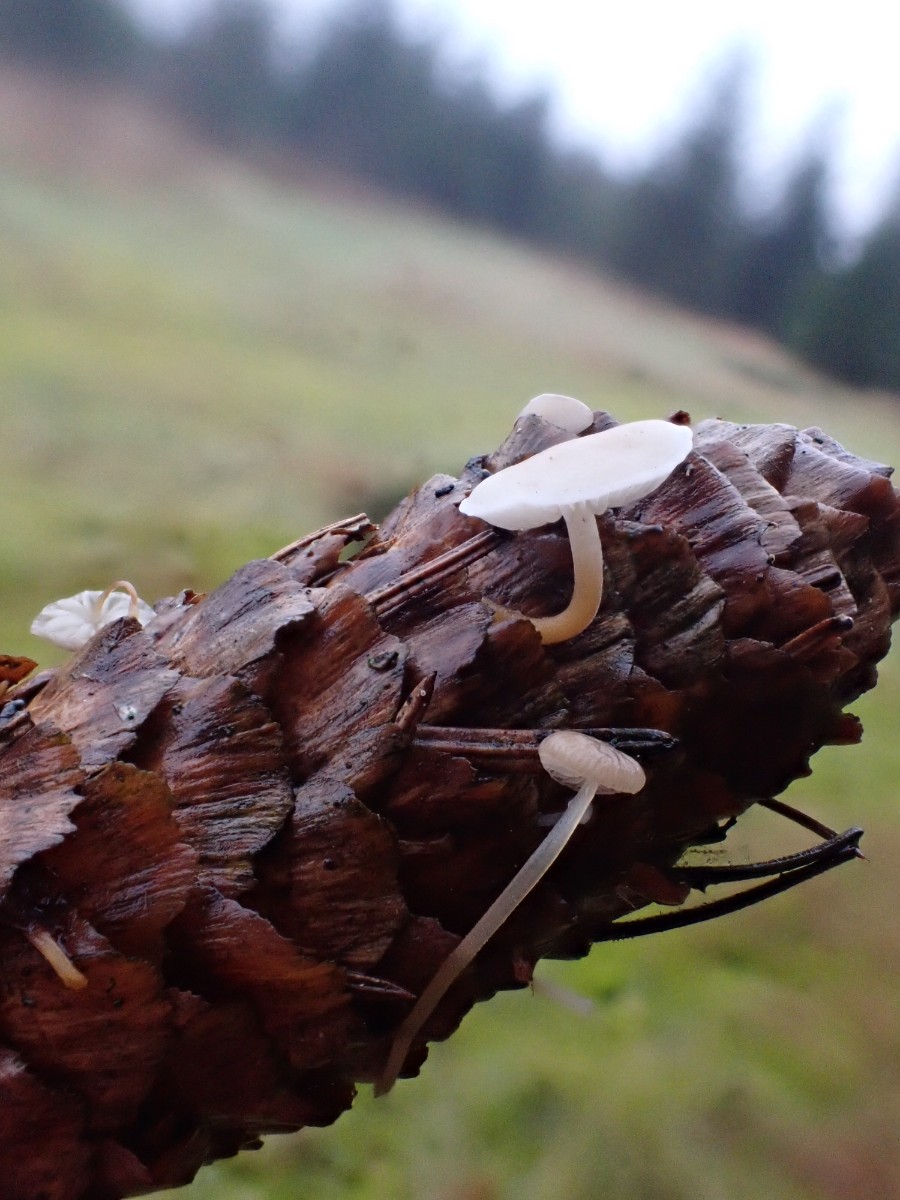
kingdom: Fungi
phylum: Basidiomycota
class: Agaricomycetes
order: Agaricales
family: Physalacriaceae
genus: Strobilurus
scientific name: Strobilurus esculentus
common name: gran-koglehat
